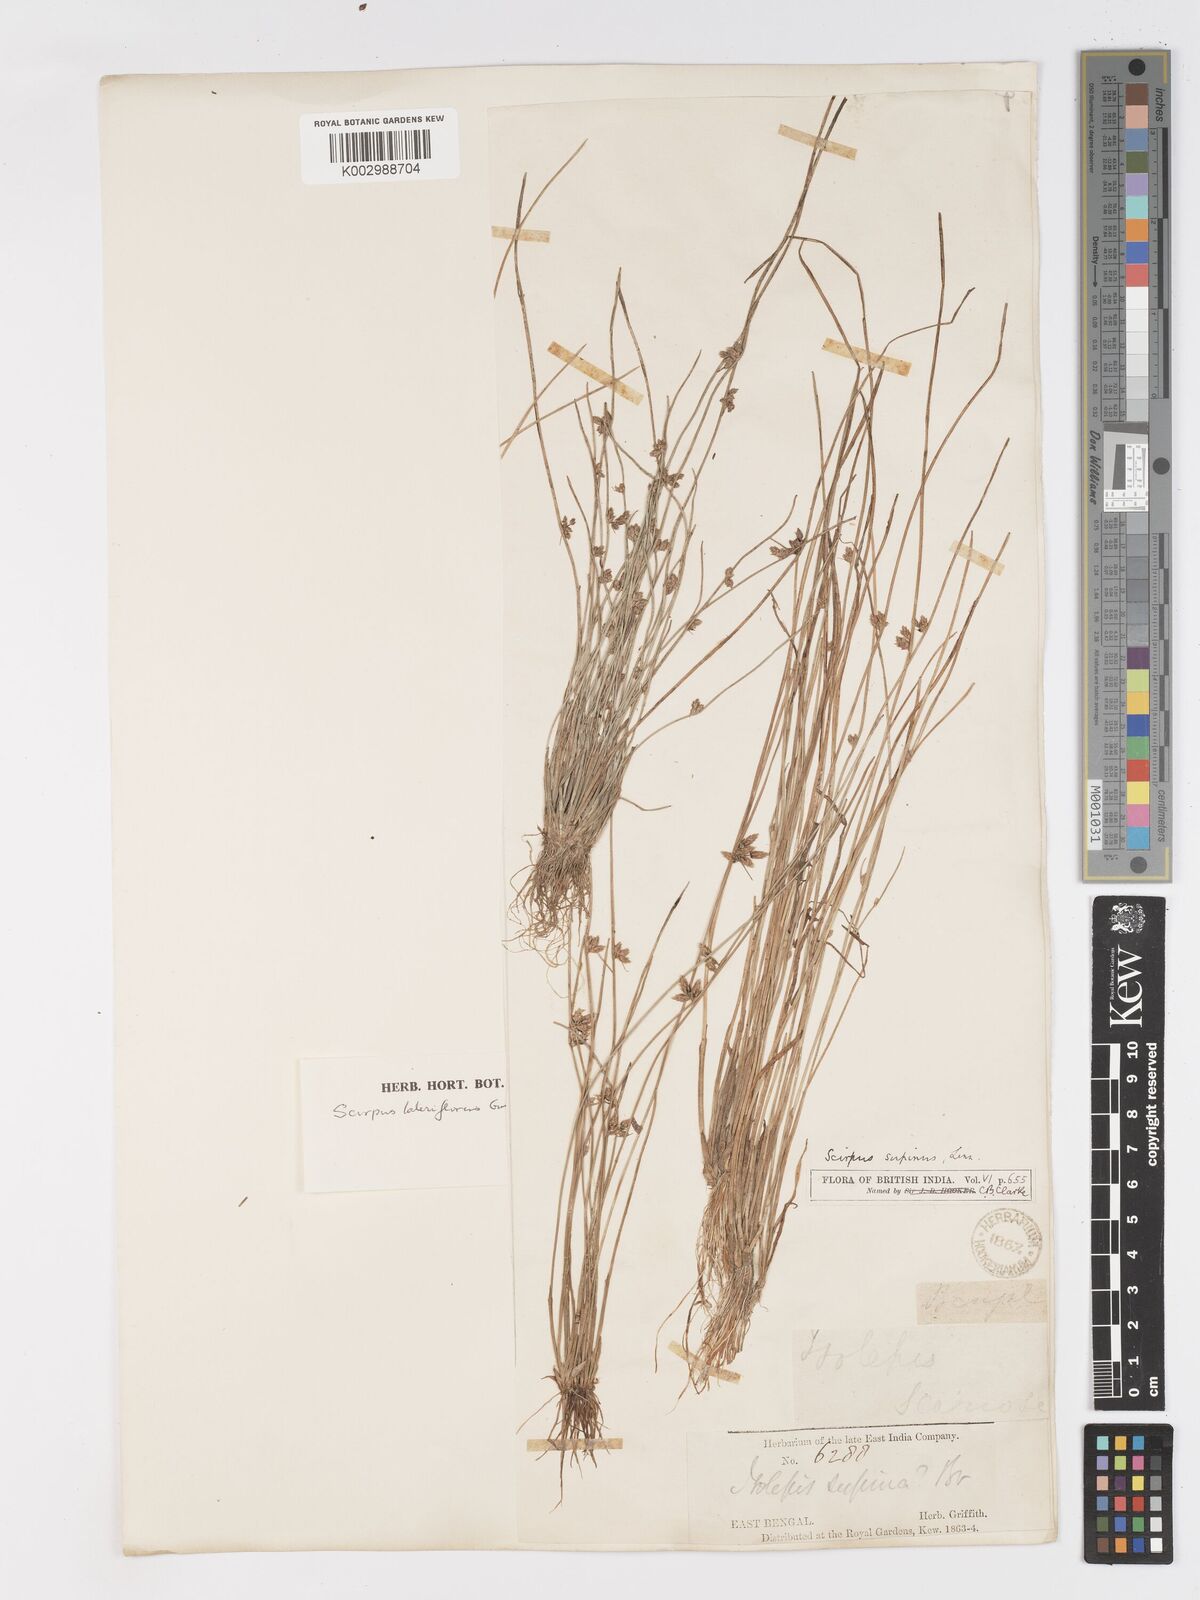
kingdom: Plantae
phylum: Tracheophyta
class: Liliopsida
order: Poales
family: Cyperaceae
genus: Schoenoplectiella
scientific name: Schoenoplectiella lateriflora
